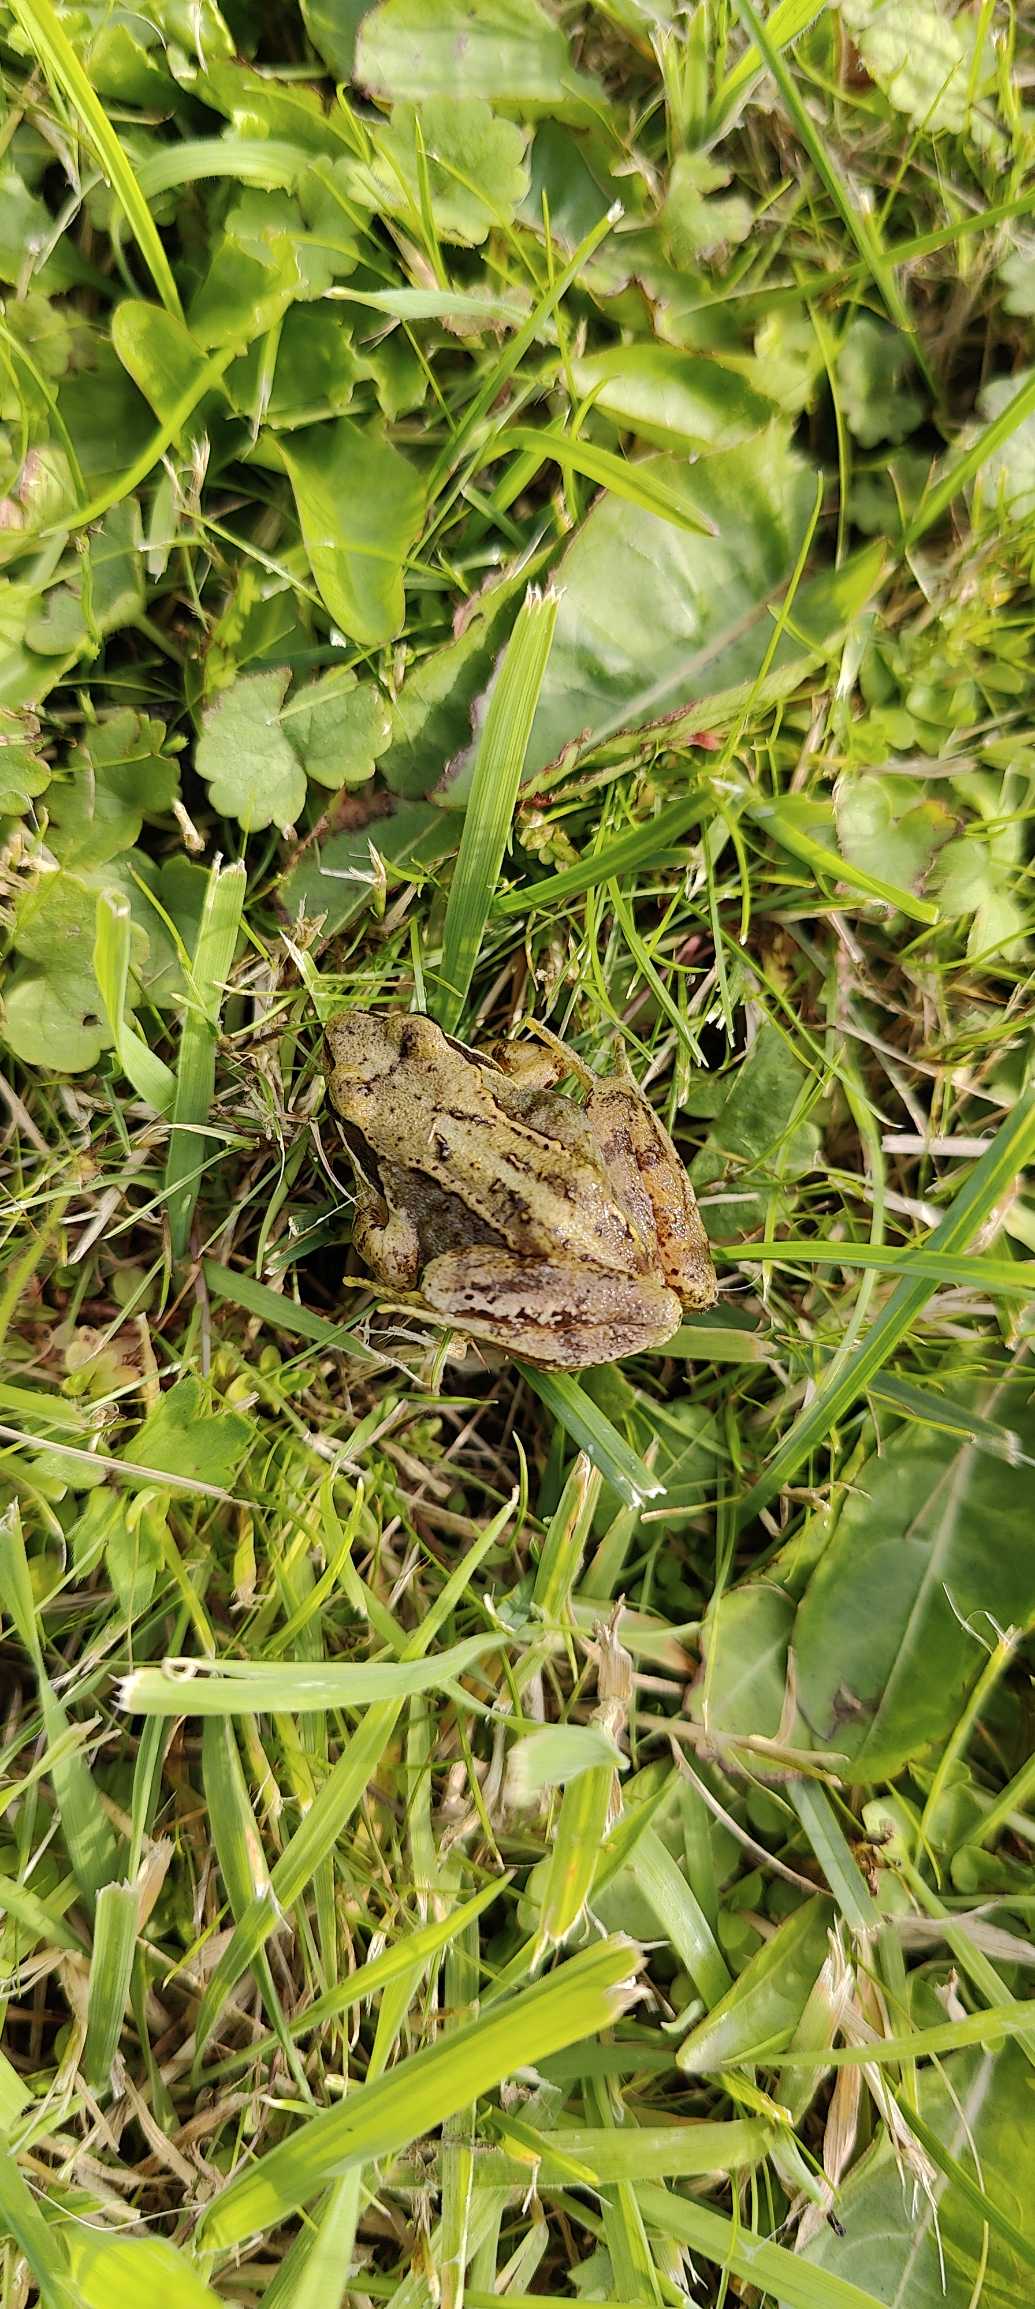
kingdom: Animalia
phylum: Chordata
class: Amphibia
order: Anura
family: Ranidae
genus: Rana
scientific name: Rana temporaria
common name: Butsnudet frø
